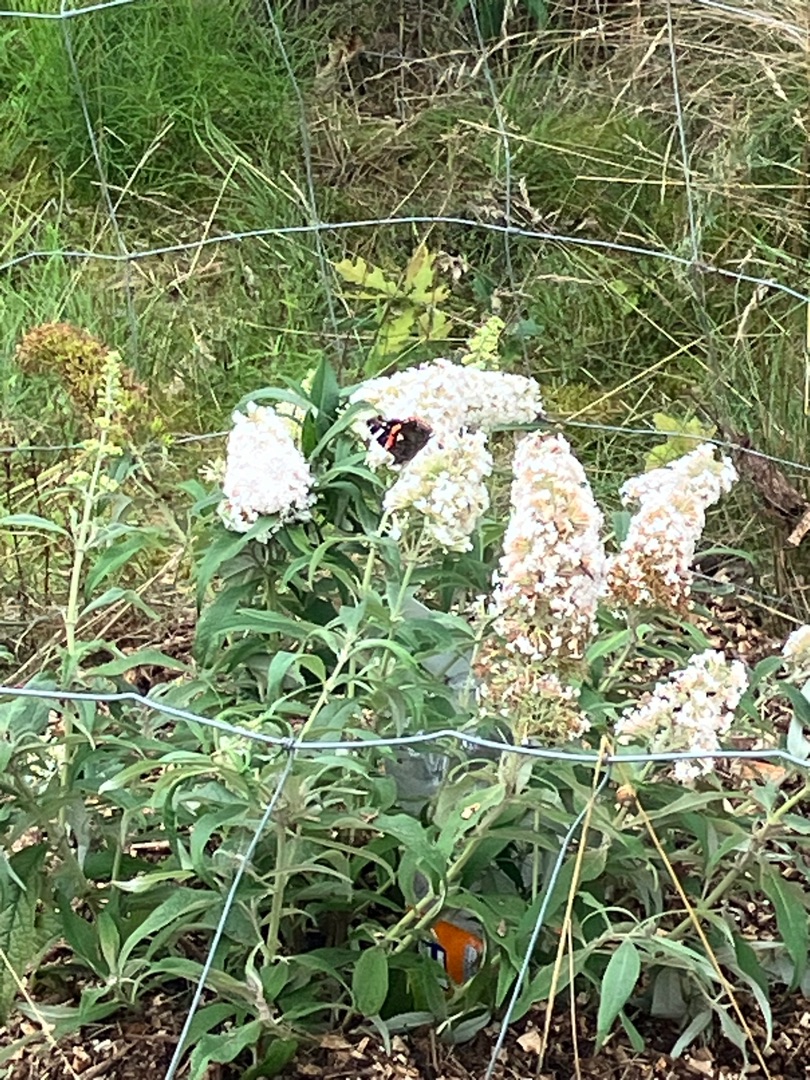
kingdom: Animalia
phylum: Arthropoda
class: Insecta
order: Lepidoptera
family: Nymphalidae
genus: Vanessa
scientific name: Vanessa atalanta
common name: Admiral
